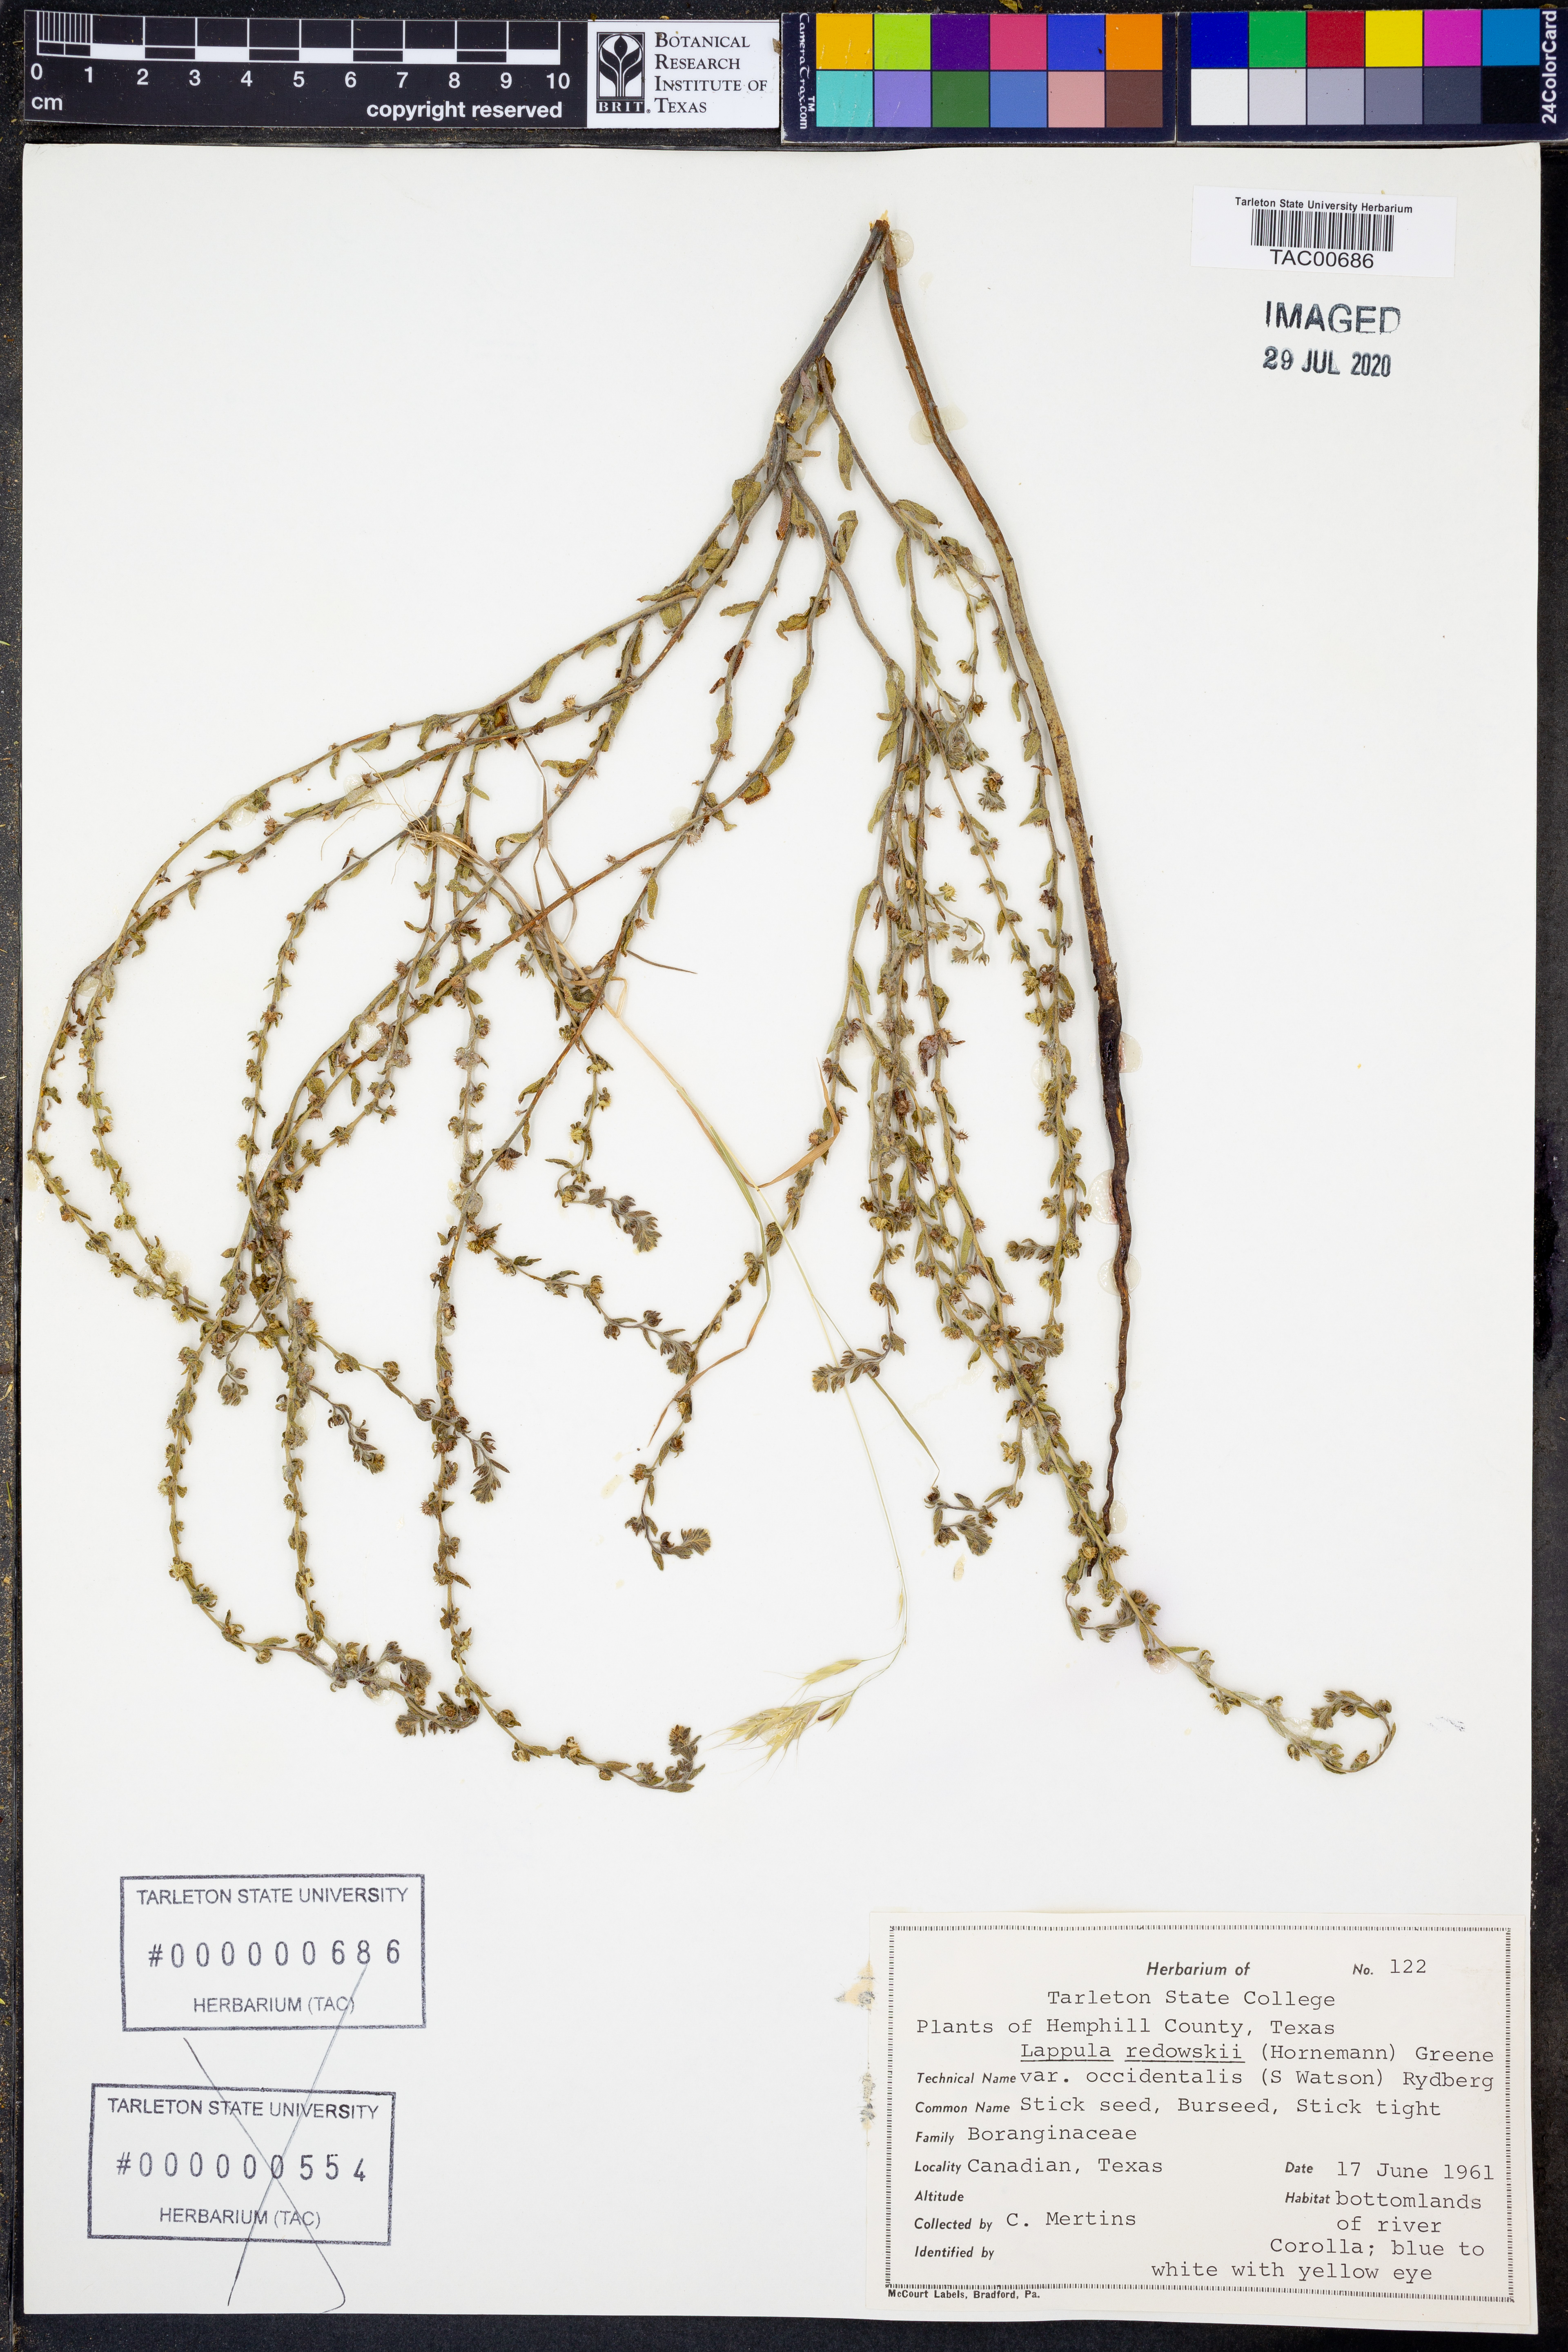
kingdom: Plantae
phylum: Tracheophyta
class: Magnoliopsida
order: Boraginales
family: Boraginaceae
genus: Lappula
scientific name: Lappula occidentalis
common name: Western stickseed
